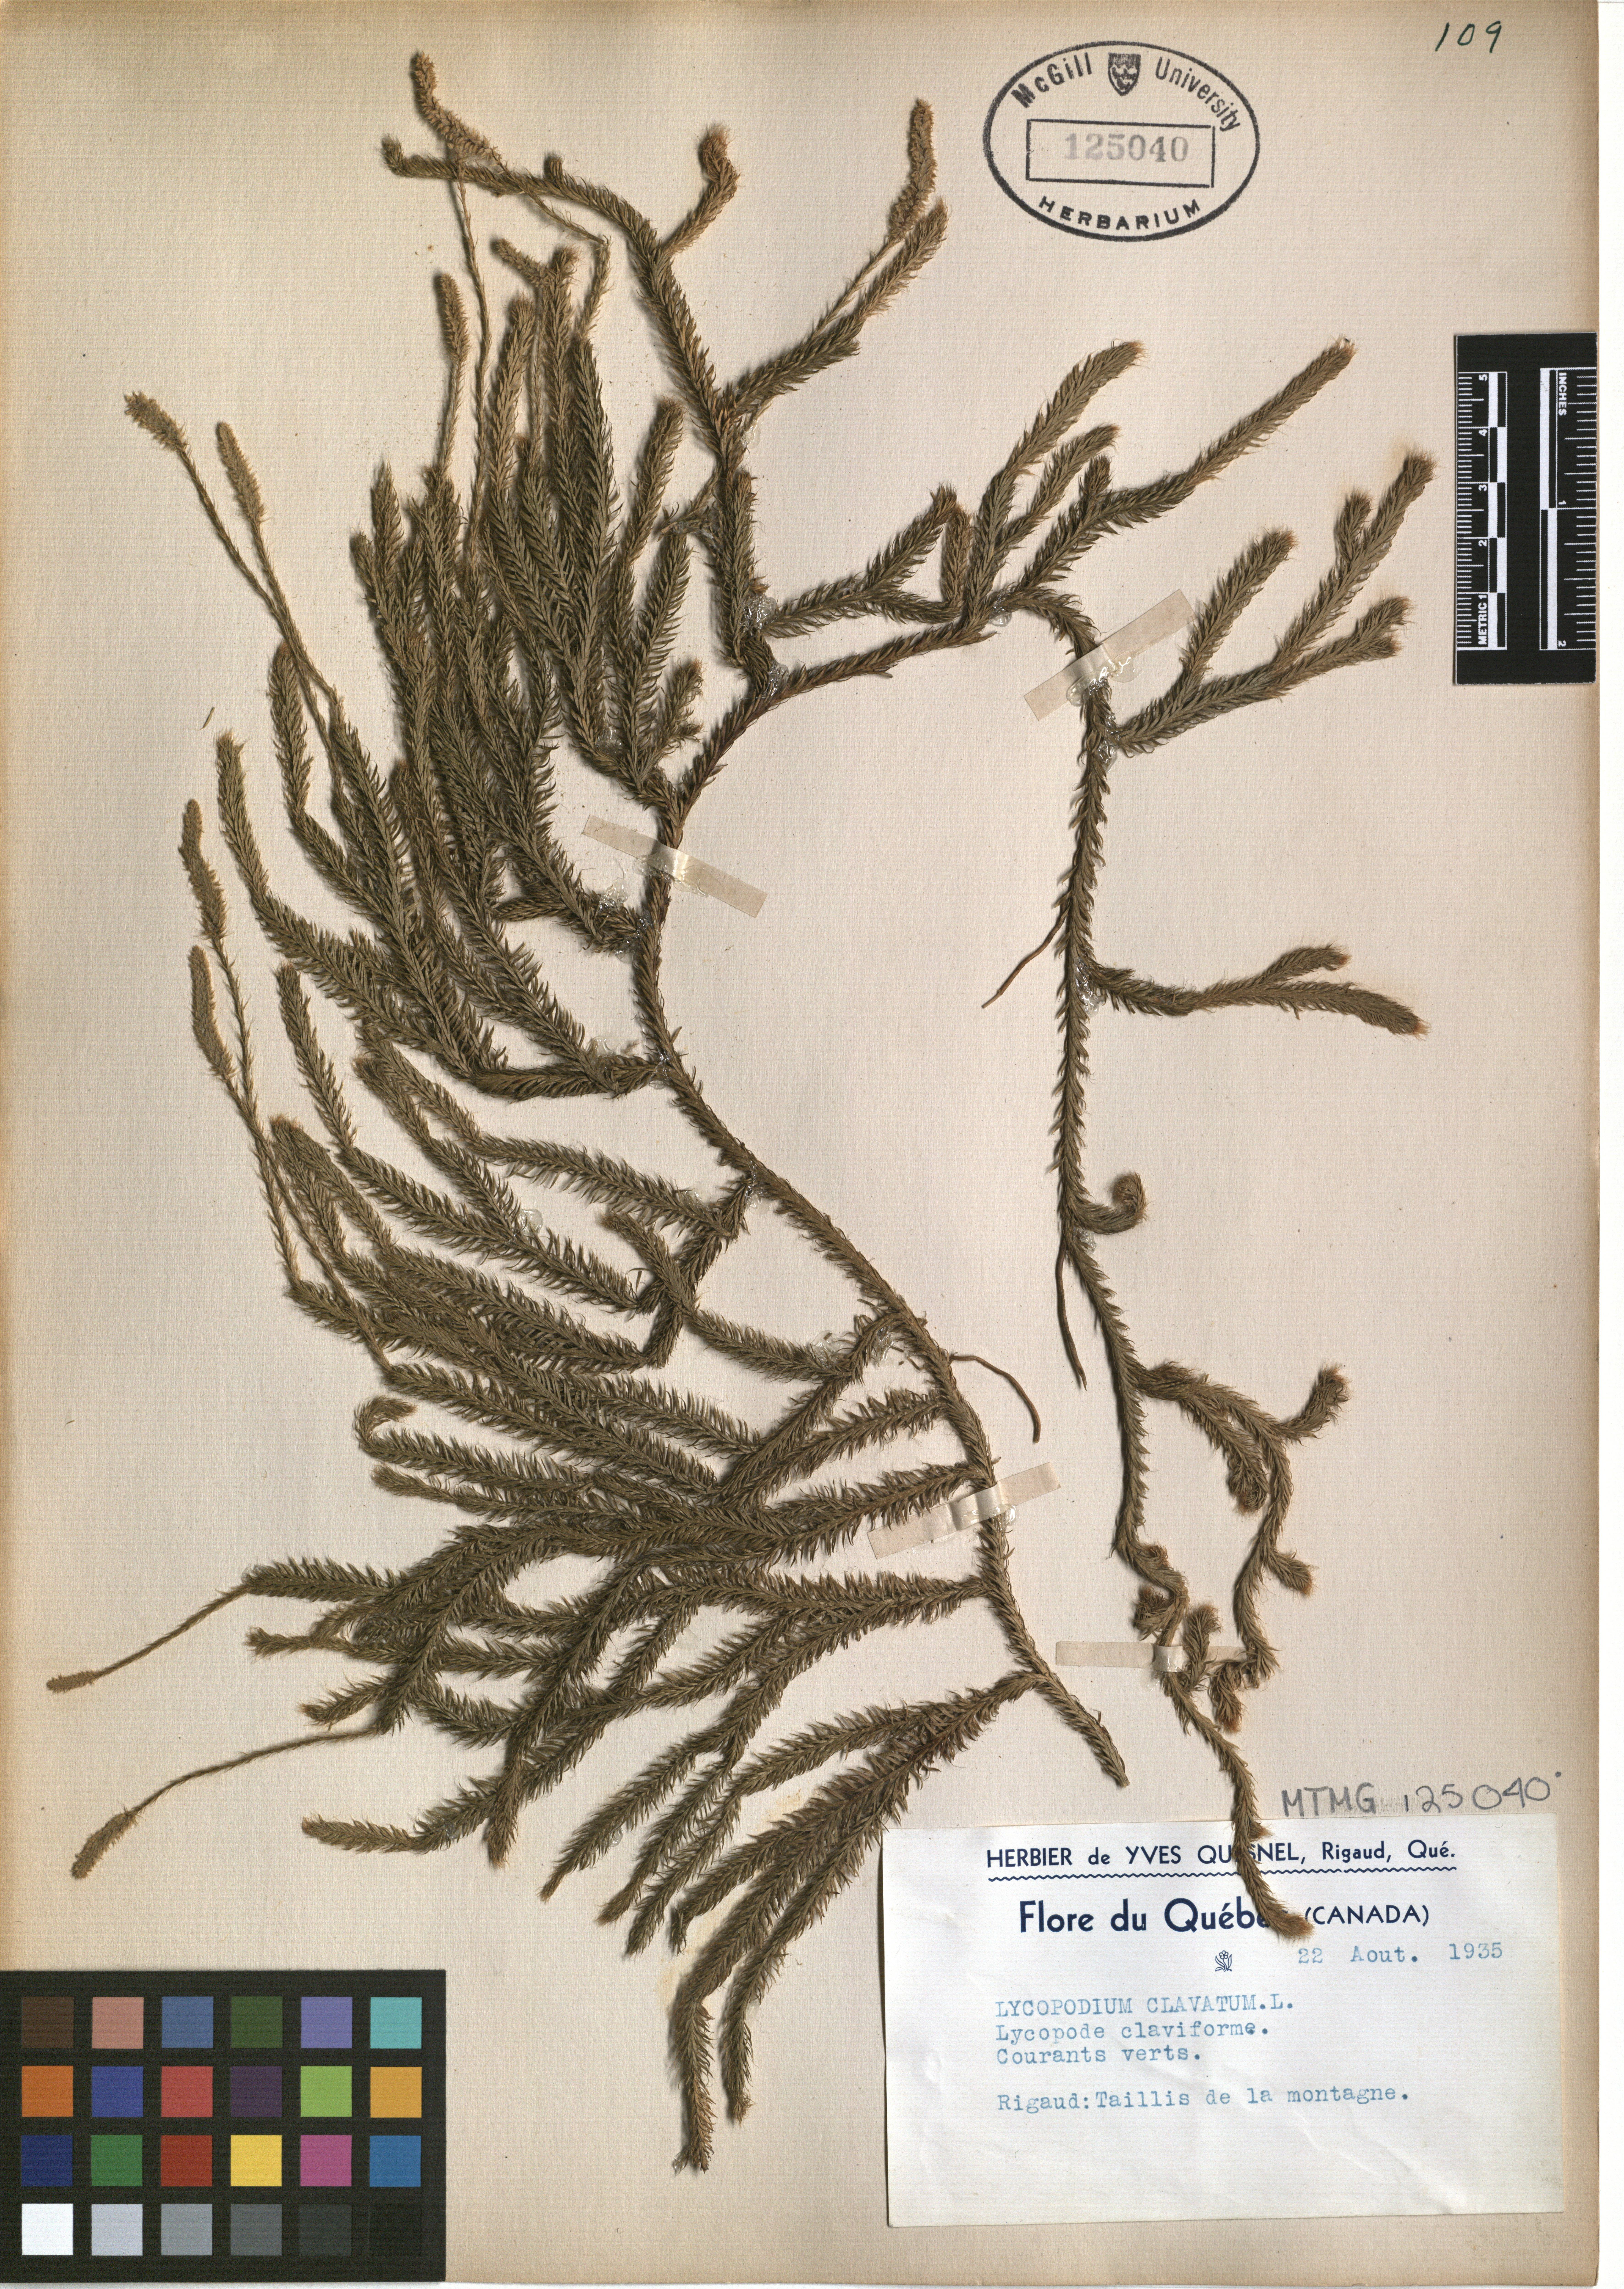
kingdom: Plantae
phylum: Tracheophyta
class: Lycopodiopsida
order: Lycopodiales
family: Lycopodiaceae
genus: Lycopodium
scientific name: Lycopodium clavatum
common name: Stag's-horn clubmoss
